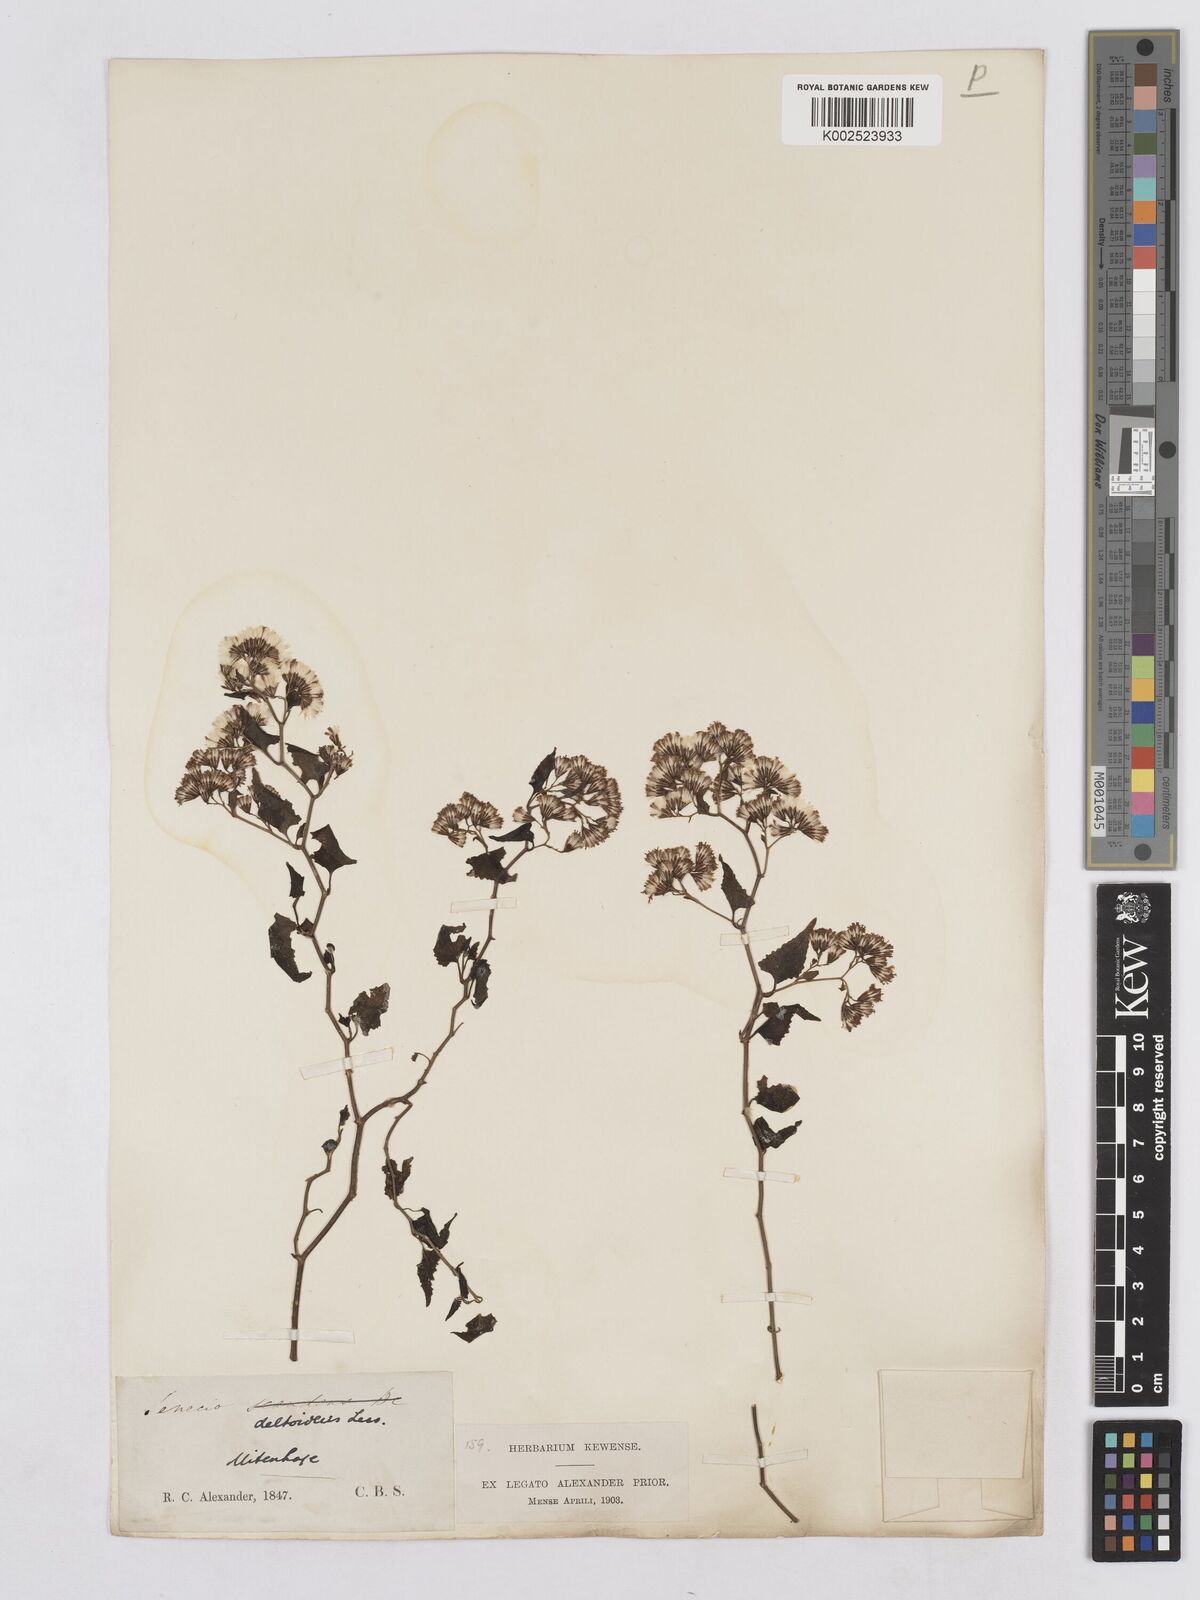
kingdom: Plantae
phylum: Tracheophyta
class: Magnoliopsida
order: Asterales
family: Asteraceae
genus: Senecio
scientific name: Senecio deltoideus
